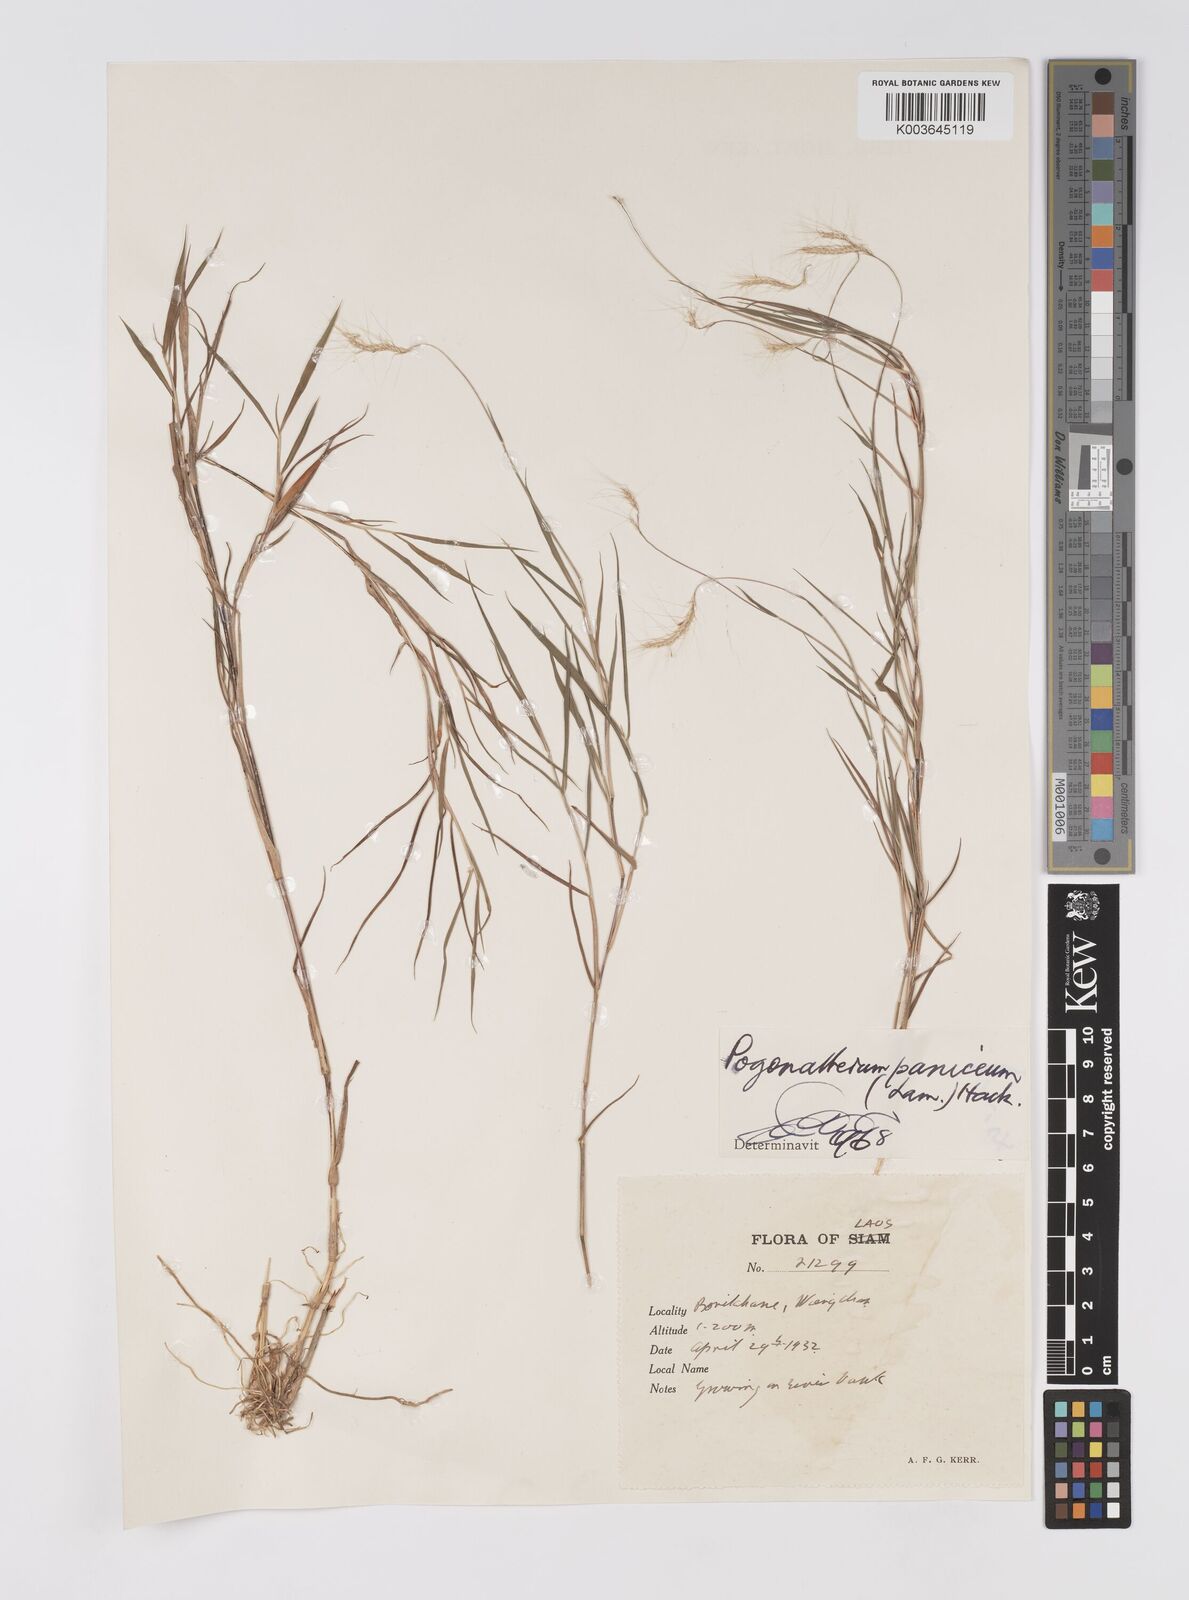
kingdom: Plantae
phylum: Tracheophyta
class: Liliopsida
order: Poales
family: Poaceae
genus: Pogonatherum
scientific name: Pogonatherum paniceum
